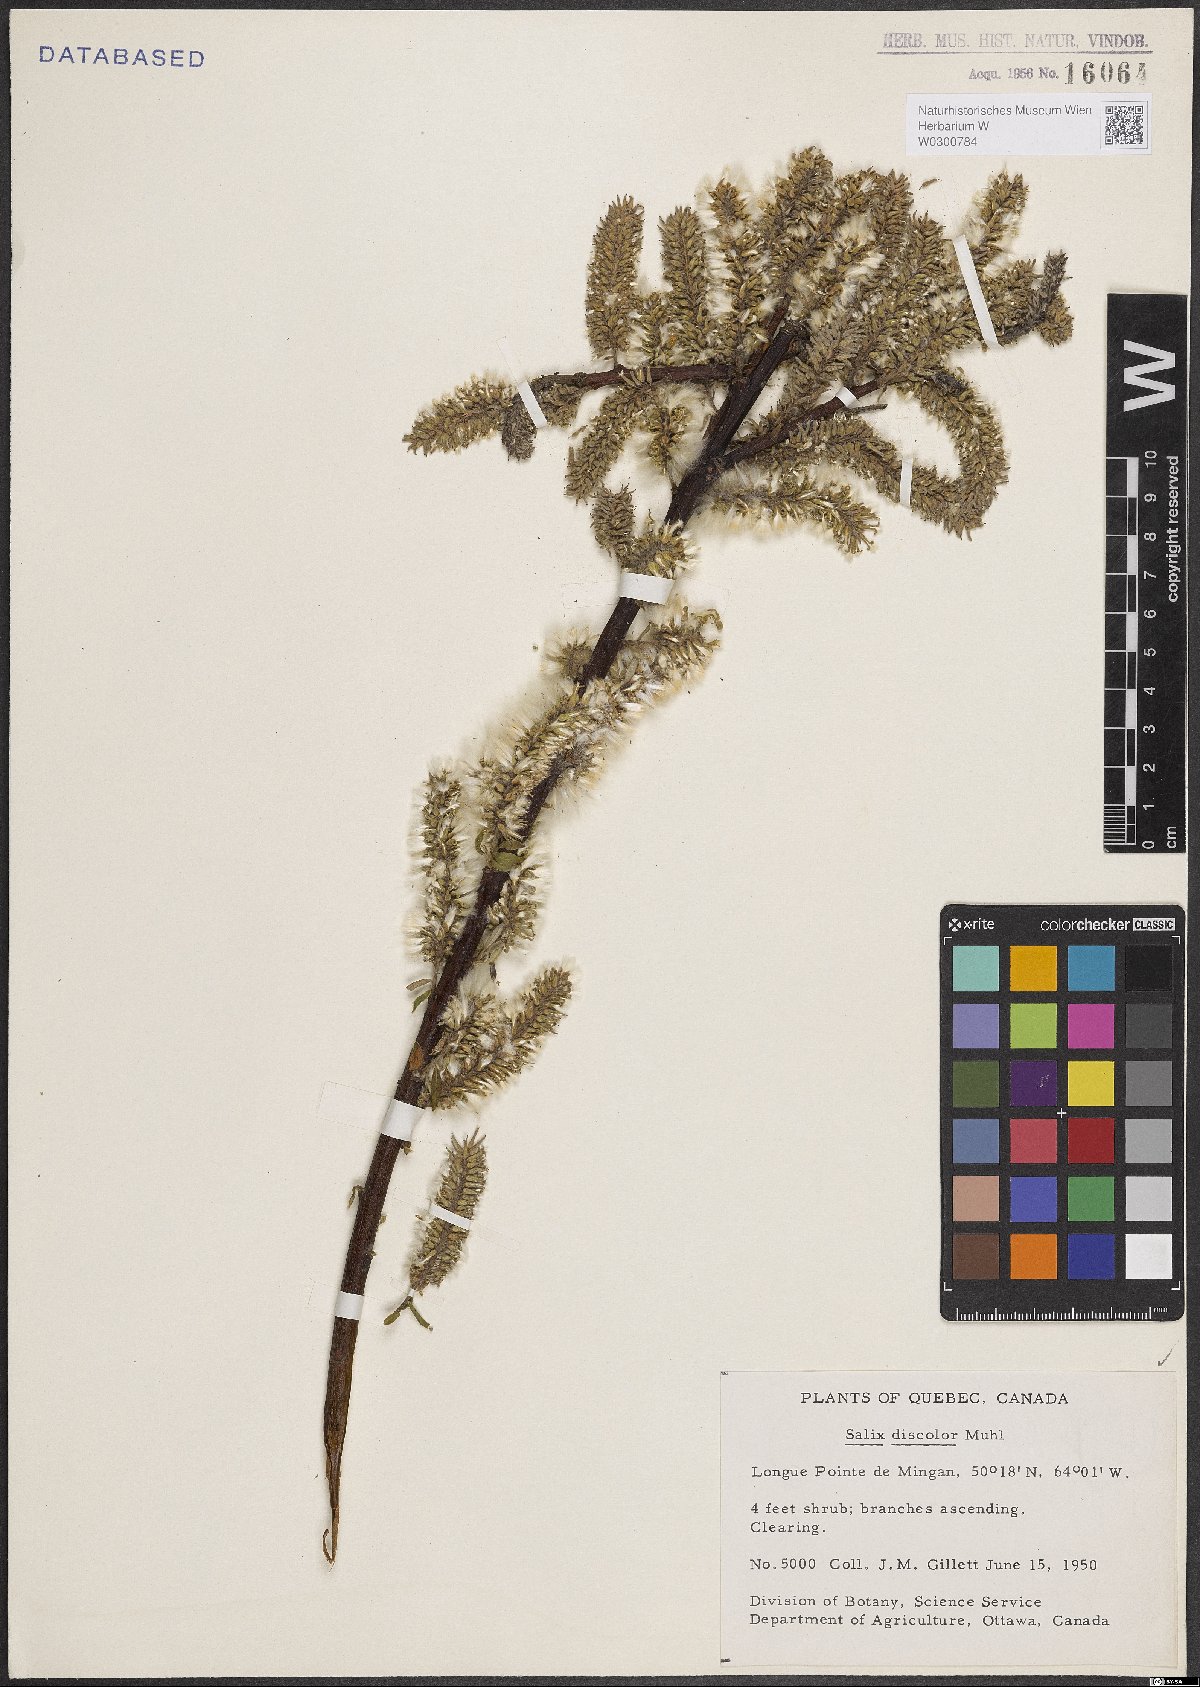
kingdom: Plantae
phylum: Tracheophyta
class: Magnoliopsida
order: Malpighiales
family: Salicaceae
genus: Salix
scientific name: Salix discolor
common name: Glaucous willow
